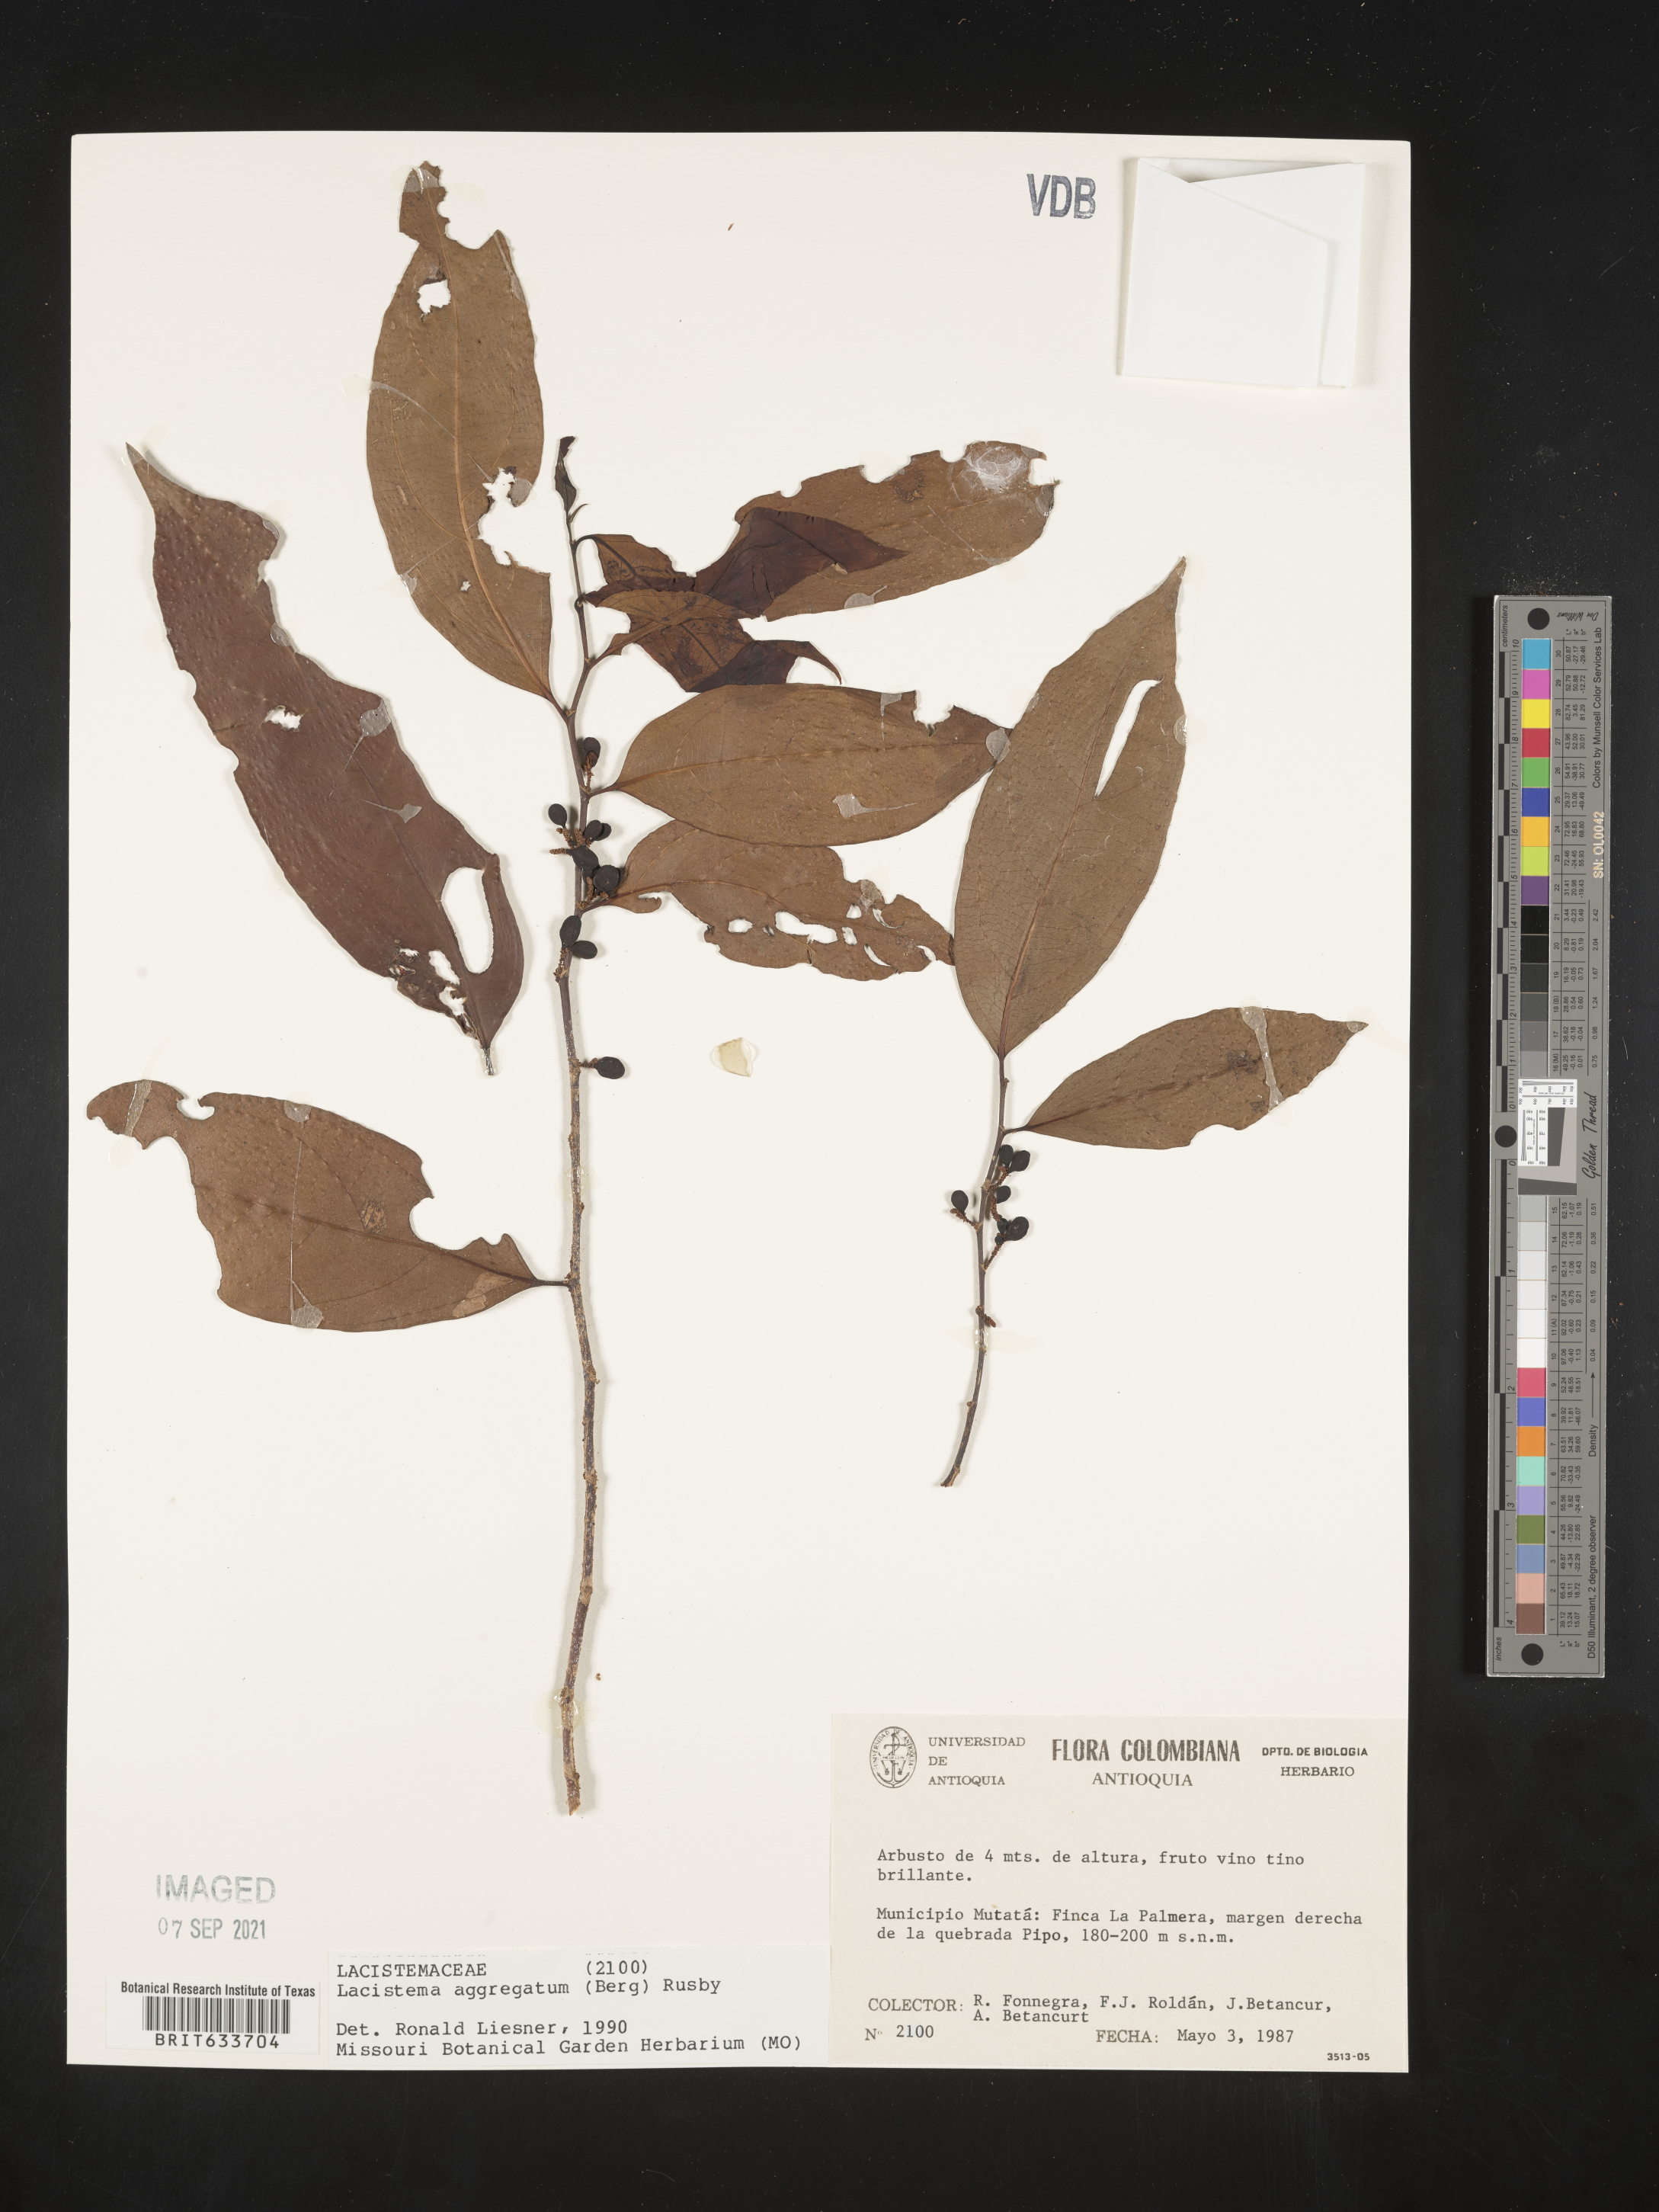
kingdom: Plantae
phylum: Tracheophyta
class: Magnoliopsida
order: Malpighiales
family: Lacistemataceae
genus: Lacistema
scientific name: Lacistema
